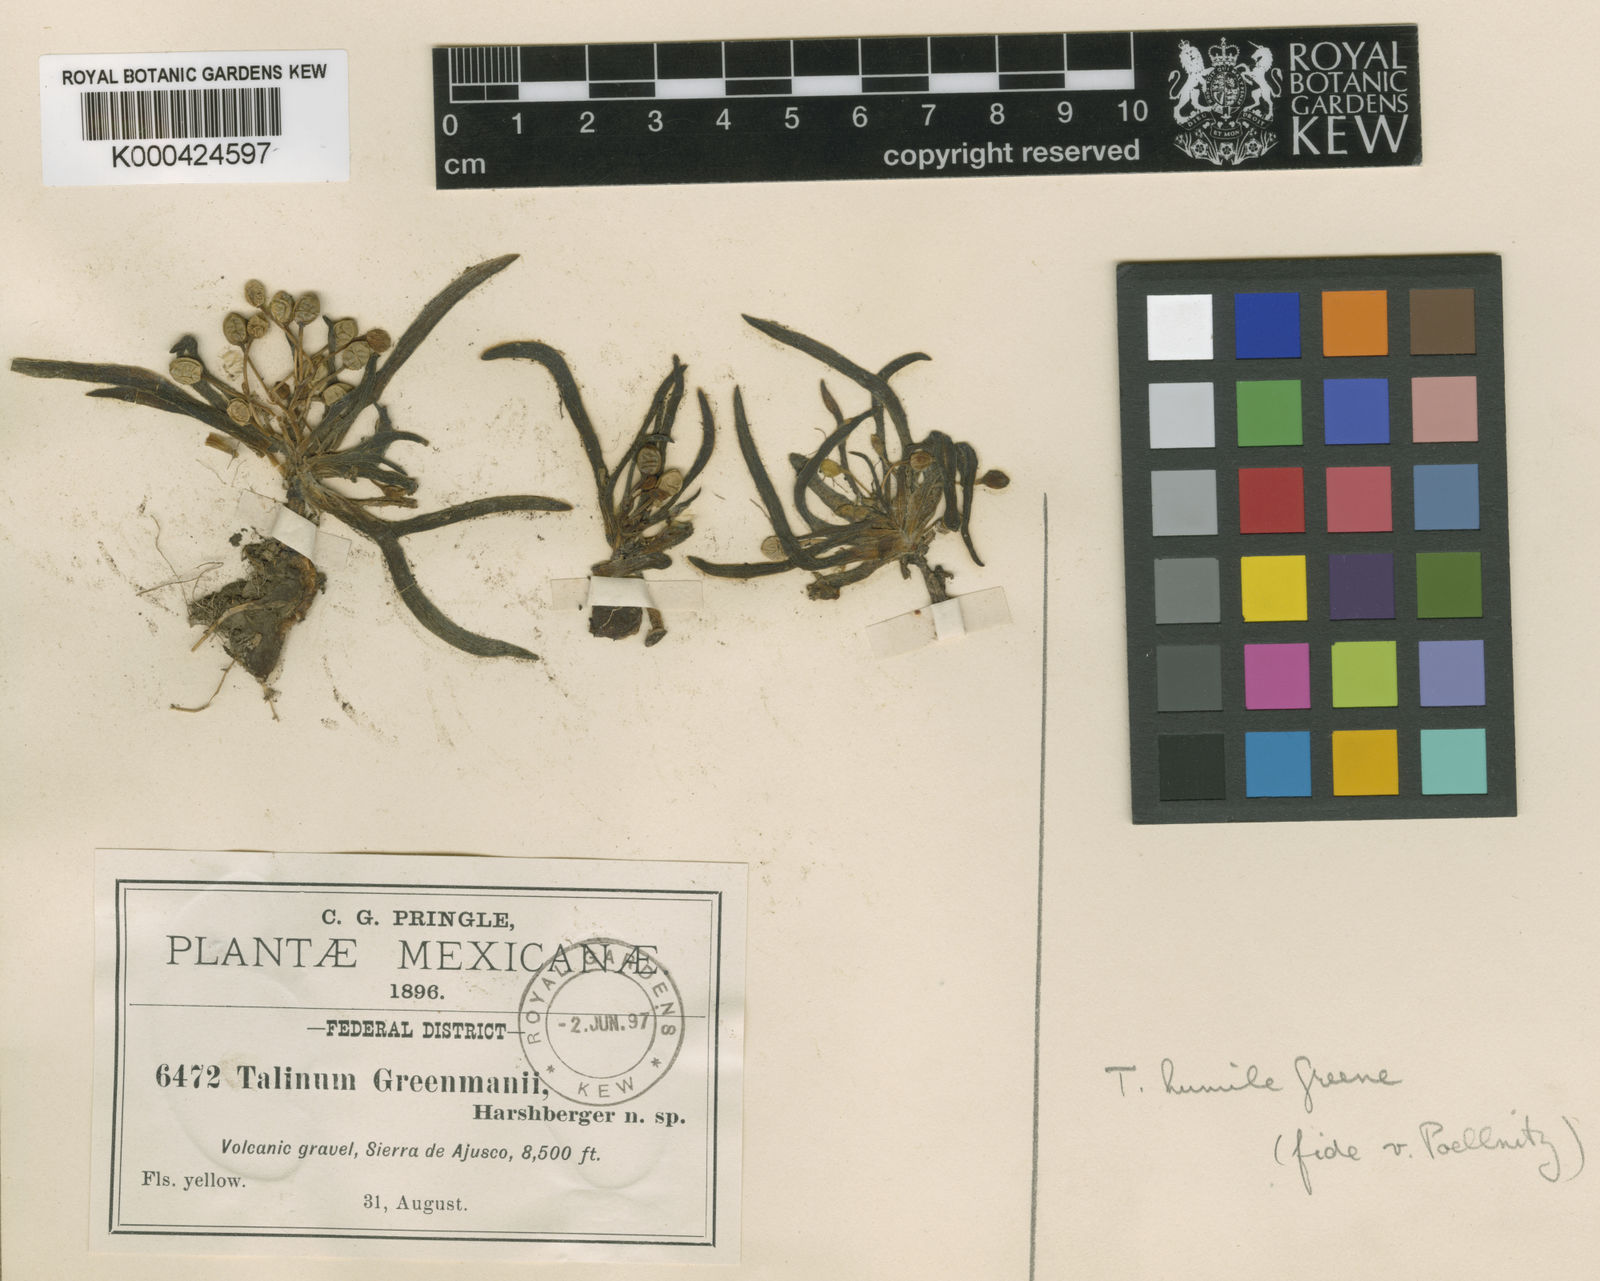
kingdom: Plantae
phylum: Tracheophyta
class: Magnoliopsida
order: Caryophyllales
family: Montiaceae
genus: Phemeranthus
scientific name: Phemeranthus humilis
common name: Pinos altos fameflower
